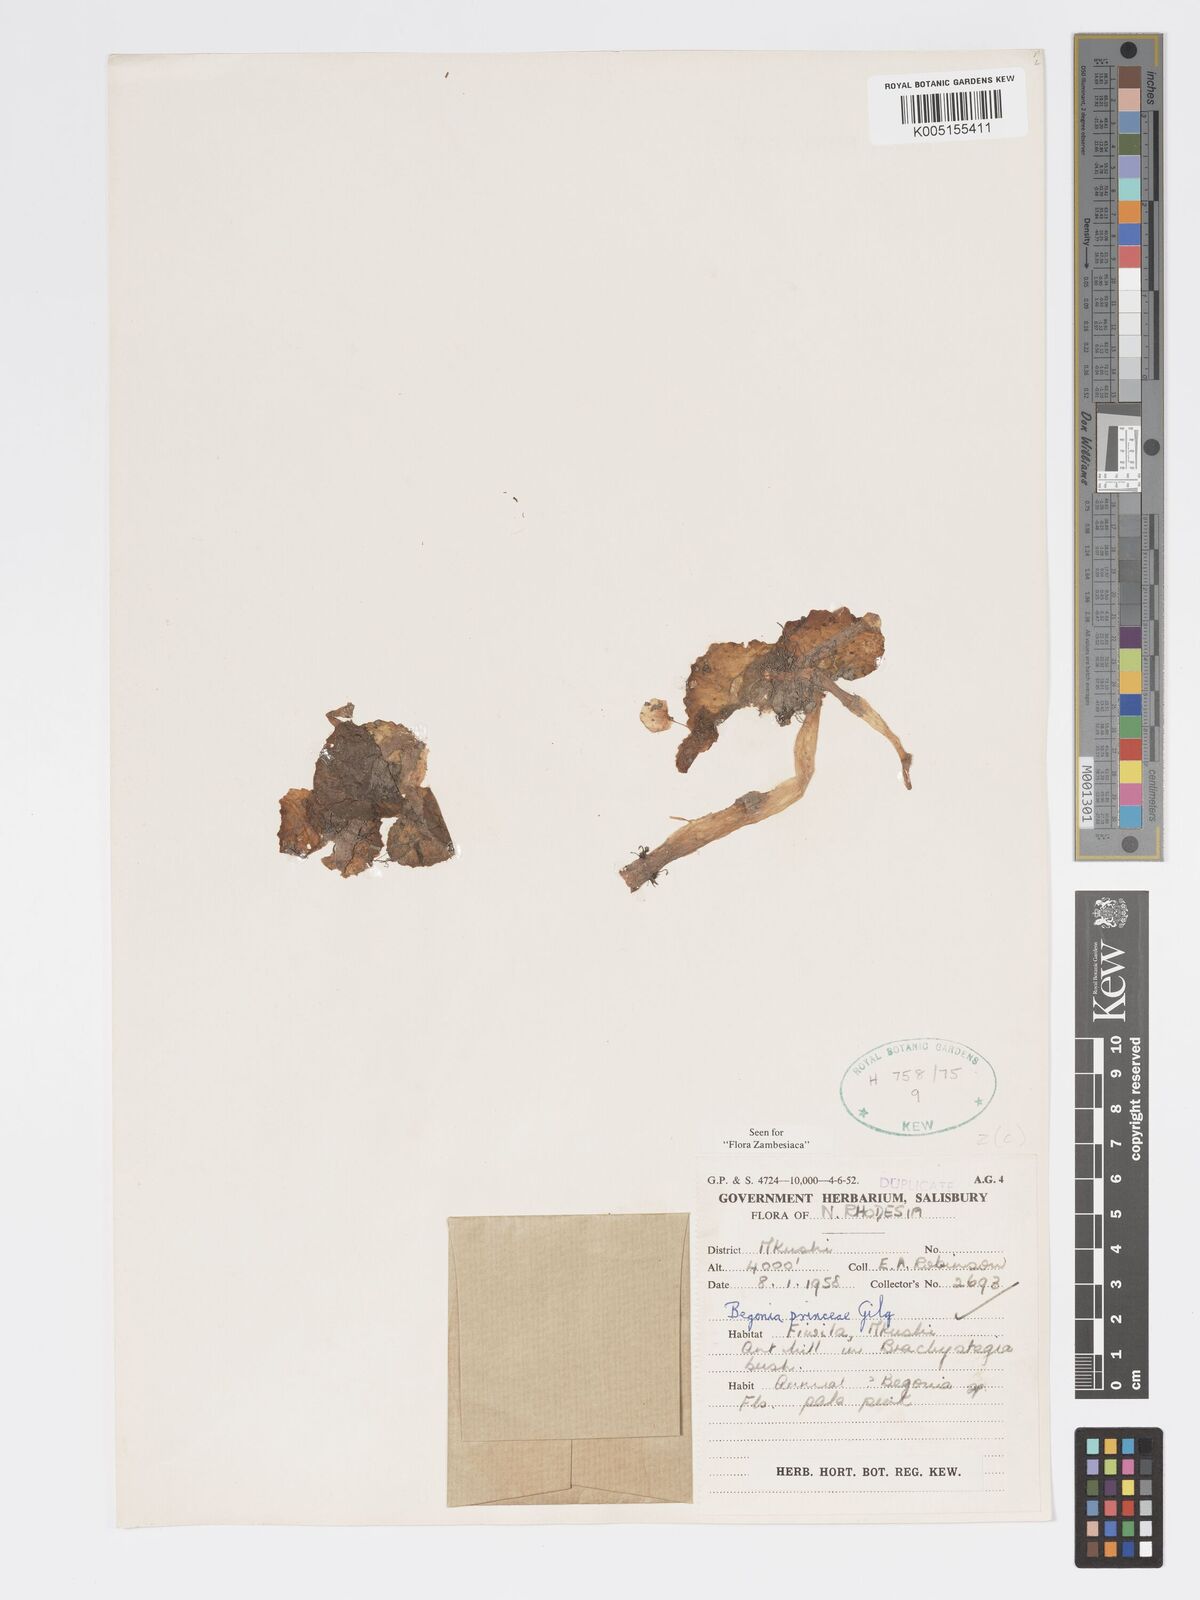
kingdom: Plantae
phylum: Tracheophyta
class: Magnoliopsida
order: Cucurbitales
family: Begoniaceae
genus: Begonia
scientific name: Begonia princeae
